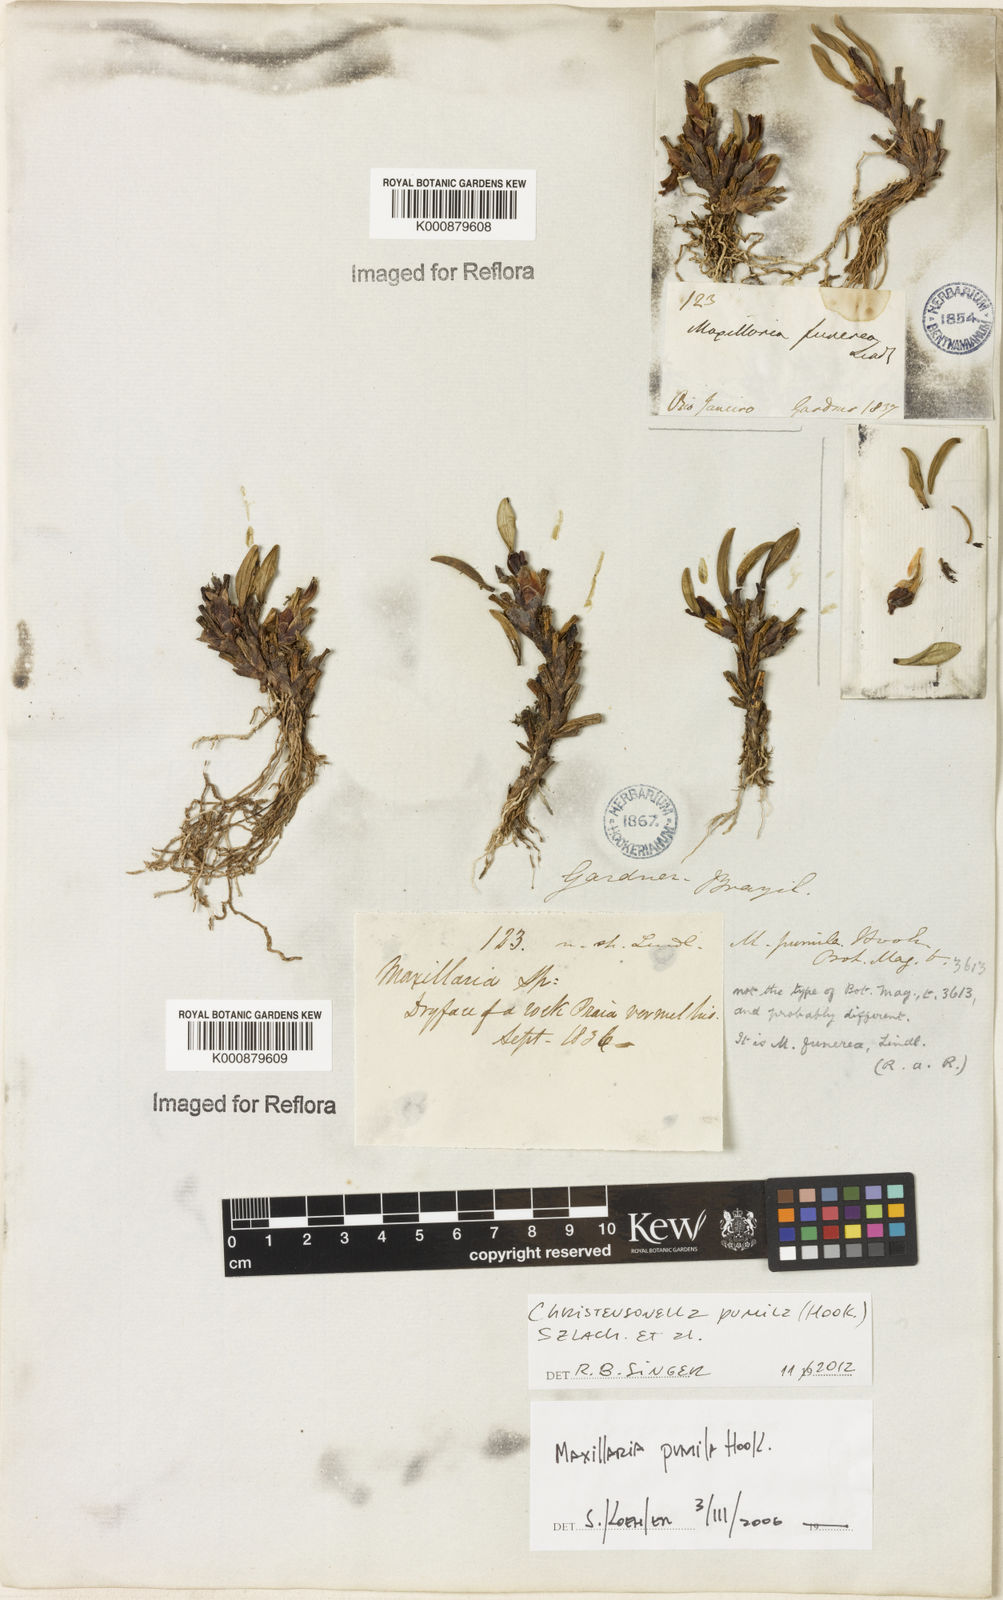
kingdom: Plantae
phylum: Tracheophyta
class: Liliopsida
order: Asparagales
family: Orchidaceae
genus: Maxillaria
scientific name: Maxillaria pumila
